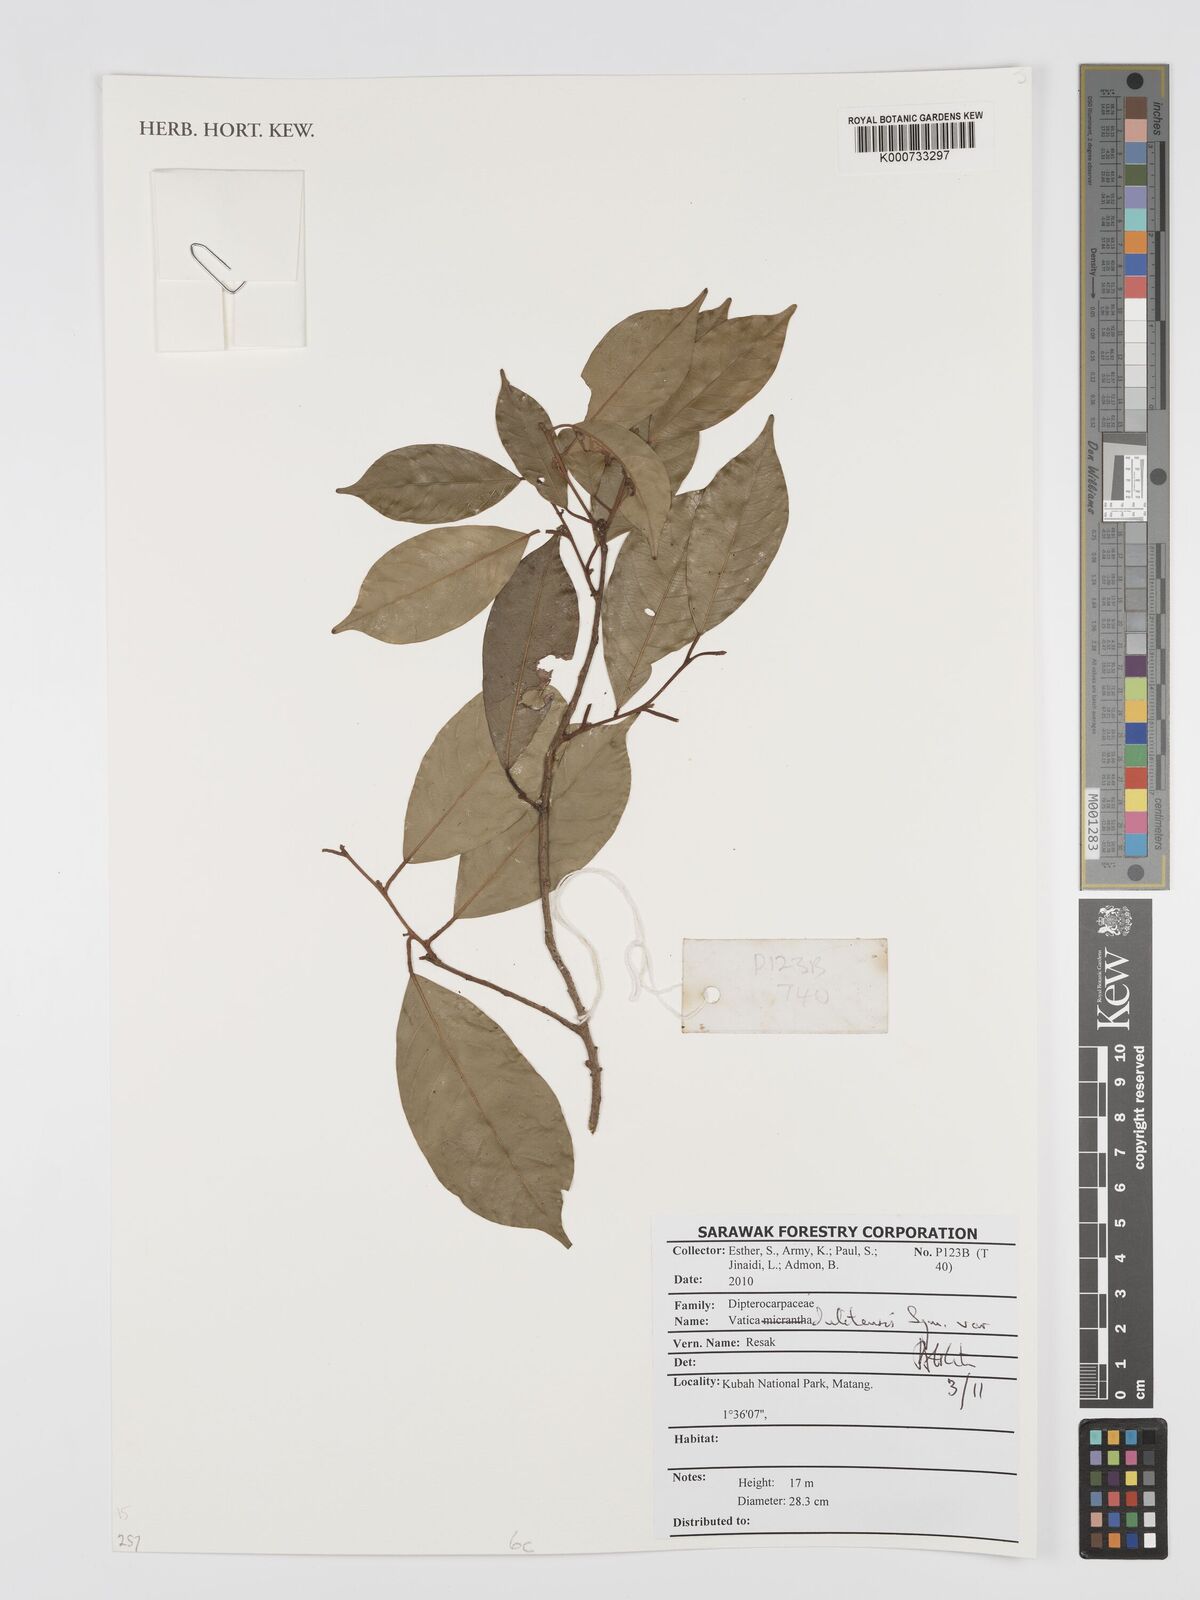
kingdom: Plantae
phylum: Tracheophyta
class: Magnoliopsida
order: Malvales
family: Dipterocarpaceae
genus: Vatica
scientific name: Vatica dulitensis
